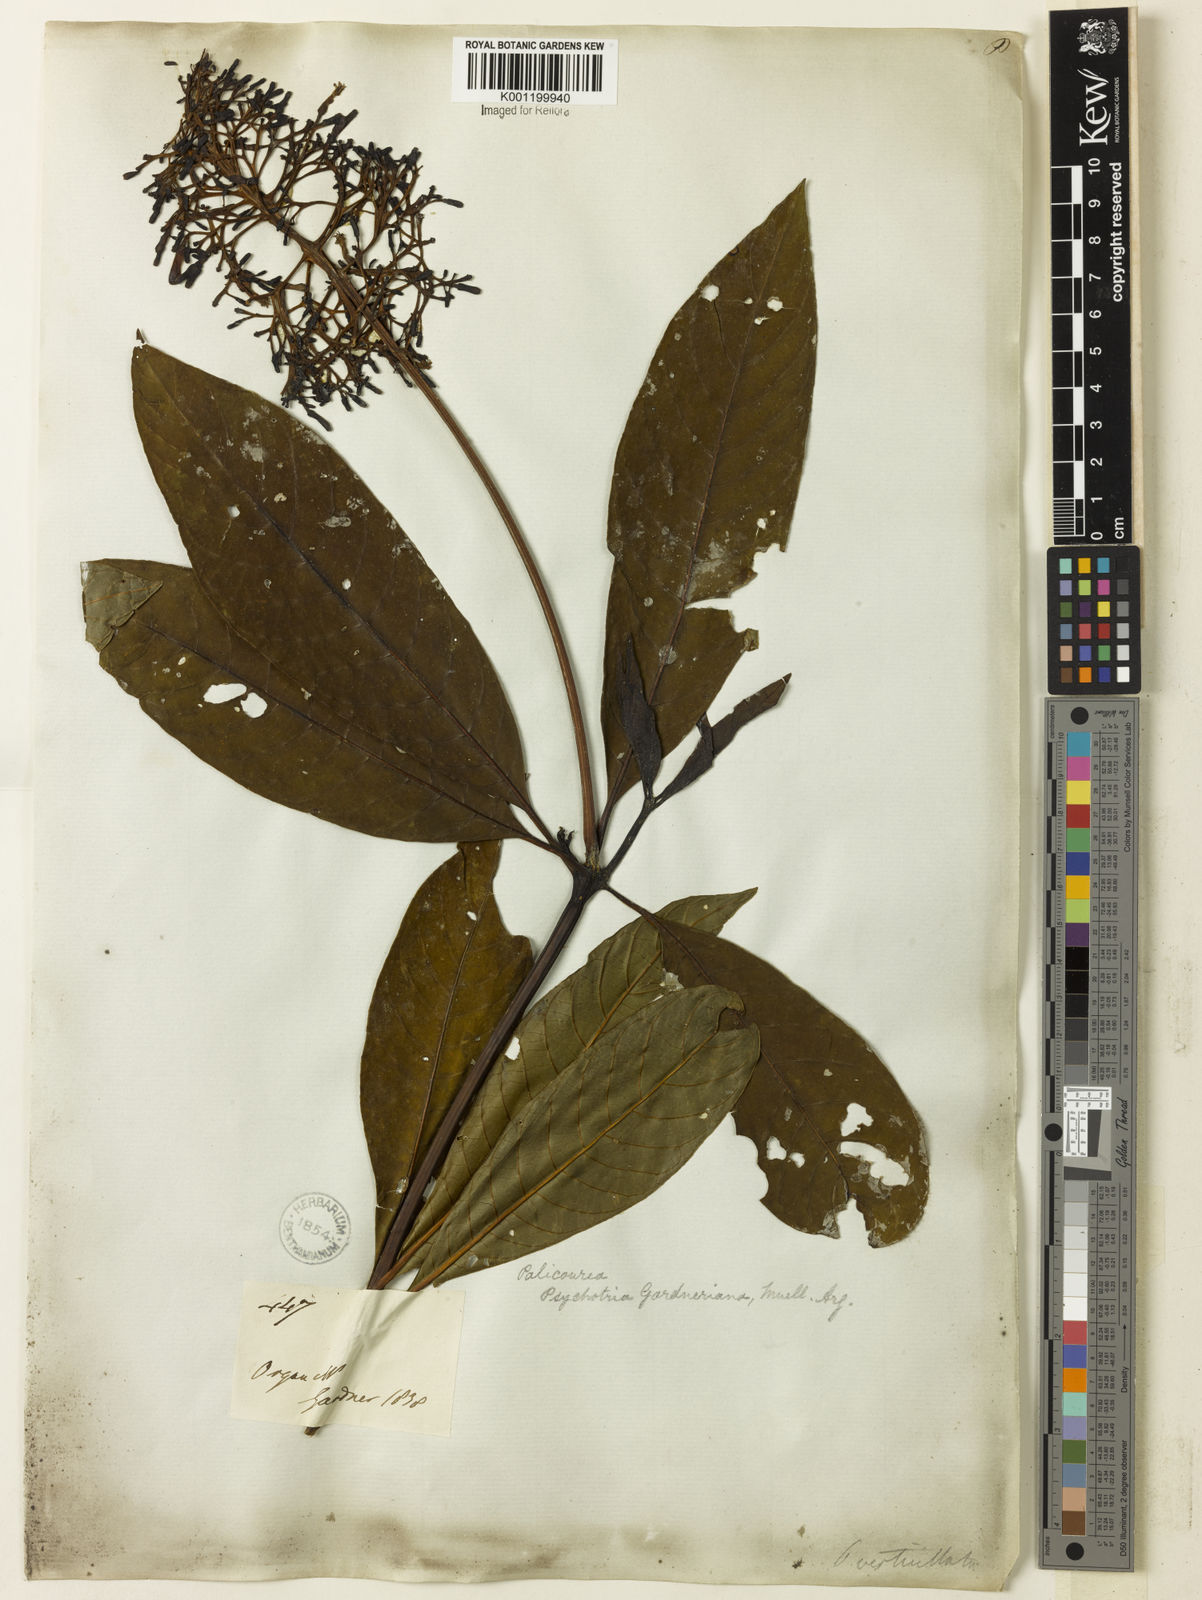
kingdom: Plantae
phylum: Tracheophyta
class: Magnoliopsida
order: Gentianales
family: Rubiaceae
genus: Palicourea
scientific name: Palicourea
